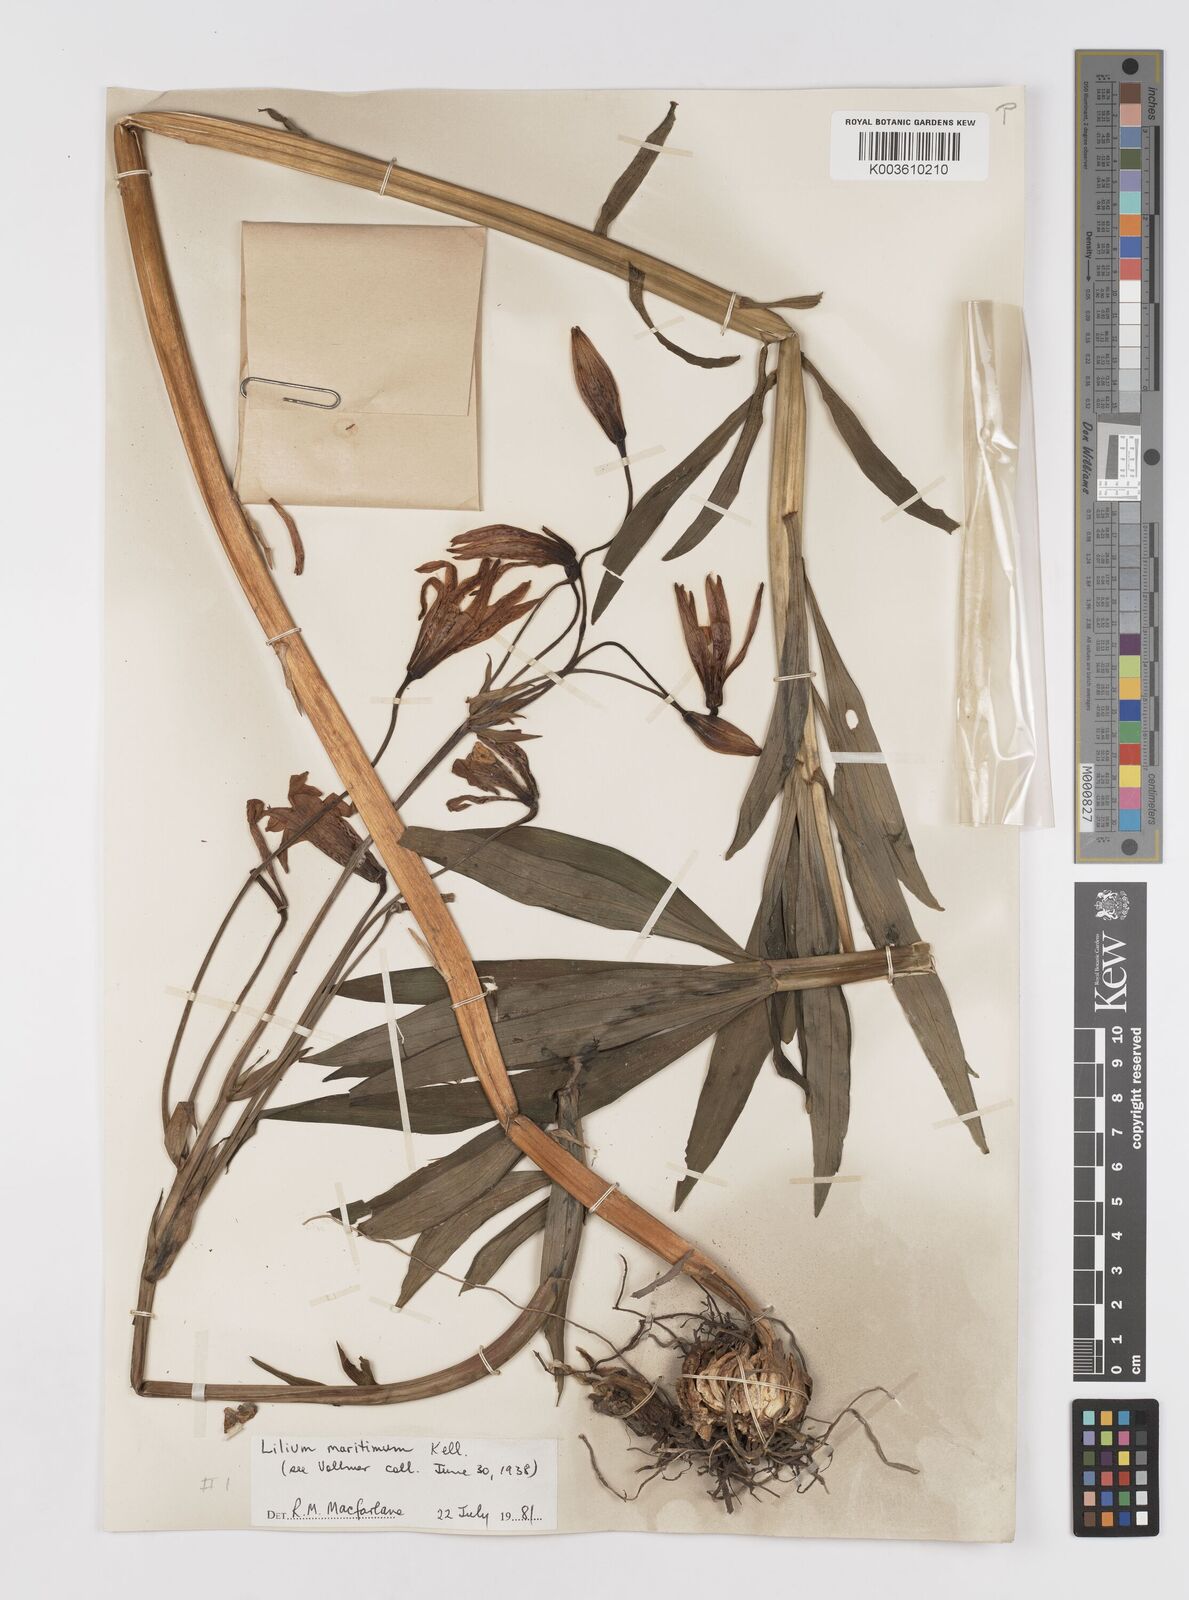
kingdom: Plantae
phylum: Tracheophyta
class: Liliopsida
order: Liliales
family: Liliaceae
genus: Lilium
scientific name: Lilium maritimum
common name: Coastal lily
